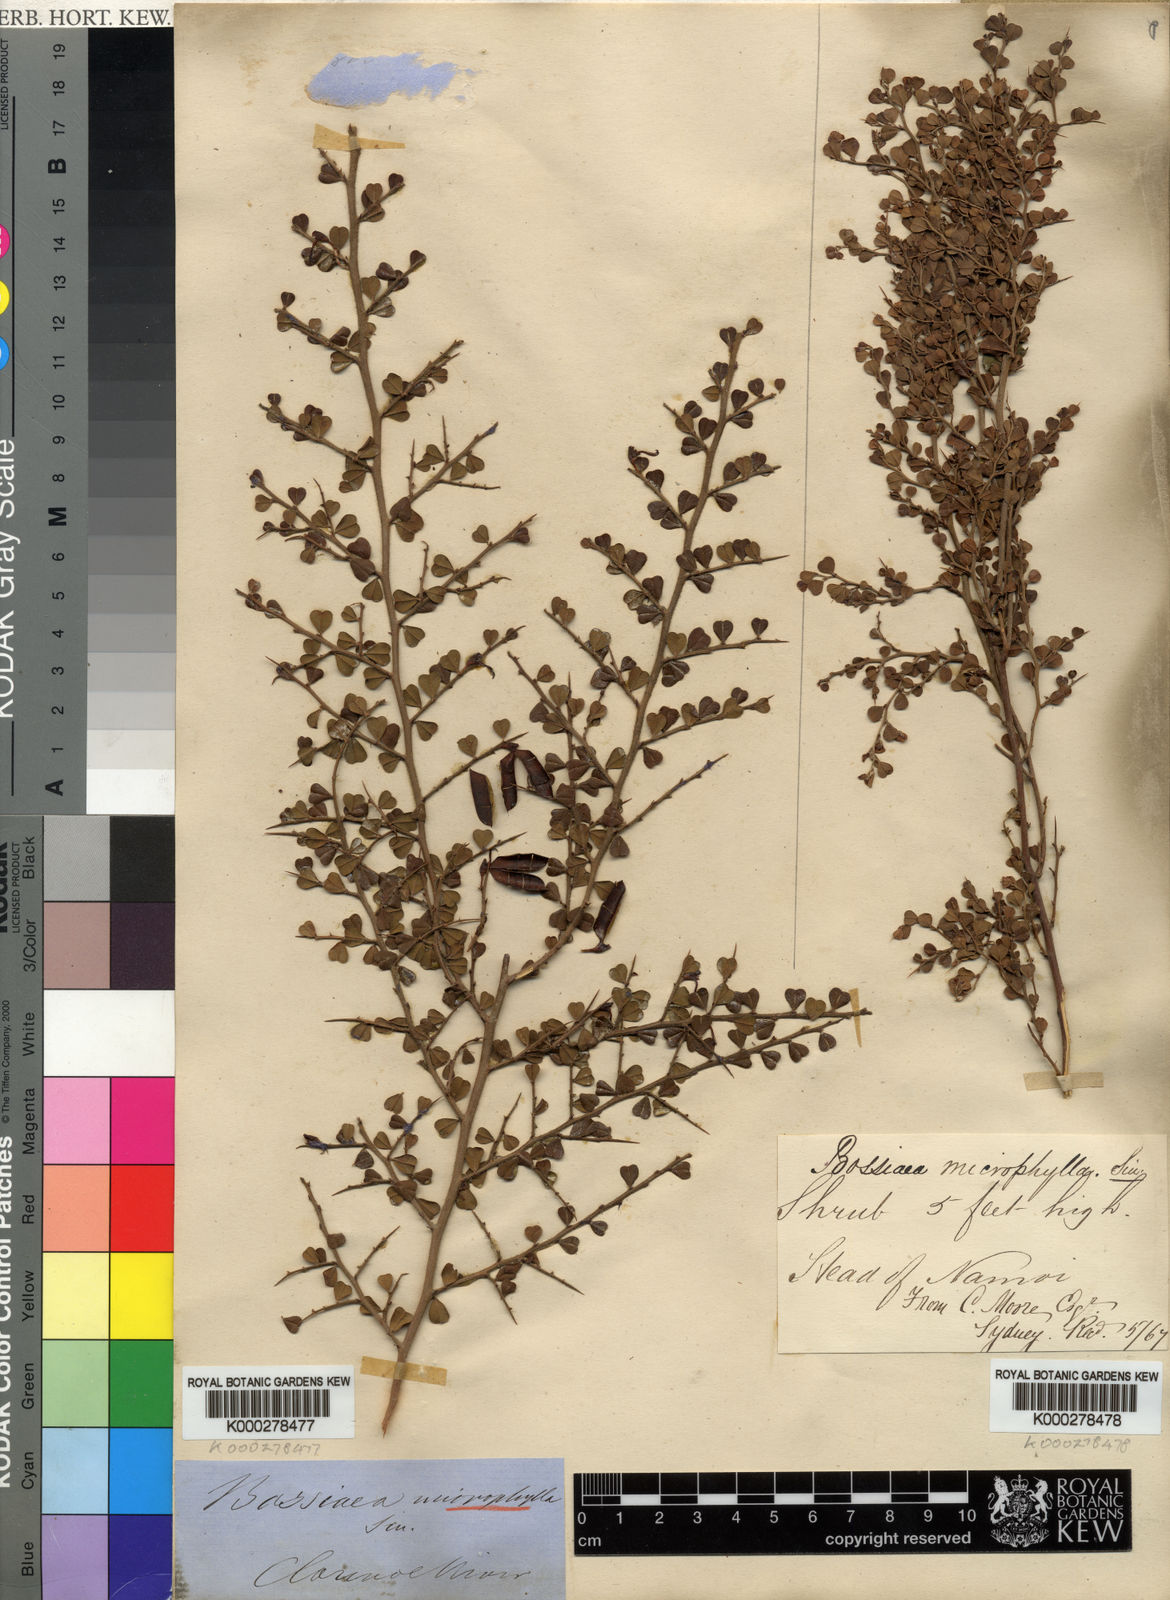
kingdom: Plantae
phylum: Tracheophyta
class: Magnoliopsida
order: Fabales
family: Fabaceae
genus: Bossiaea
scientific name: Bossiaea obcordata
